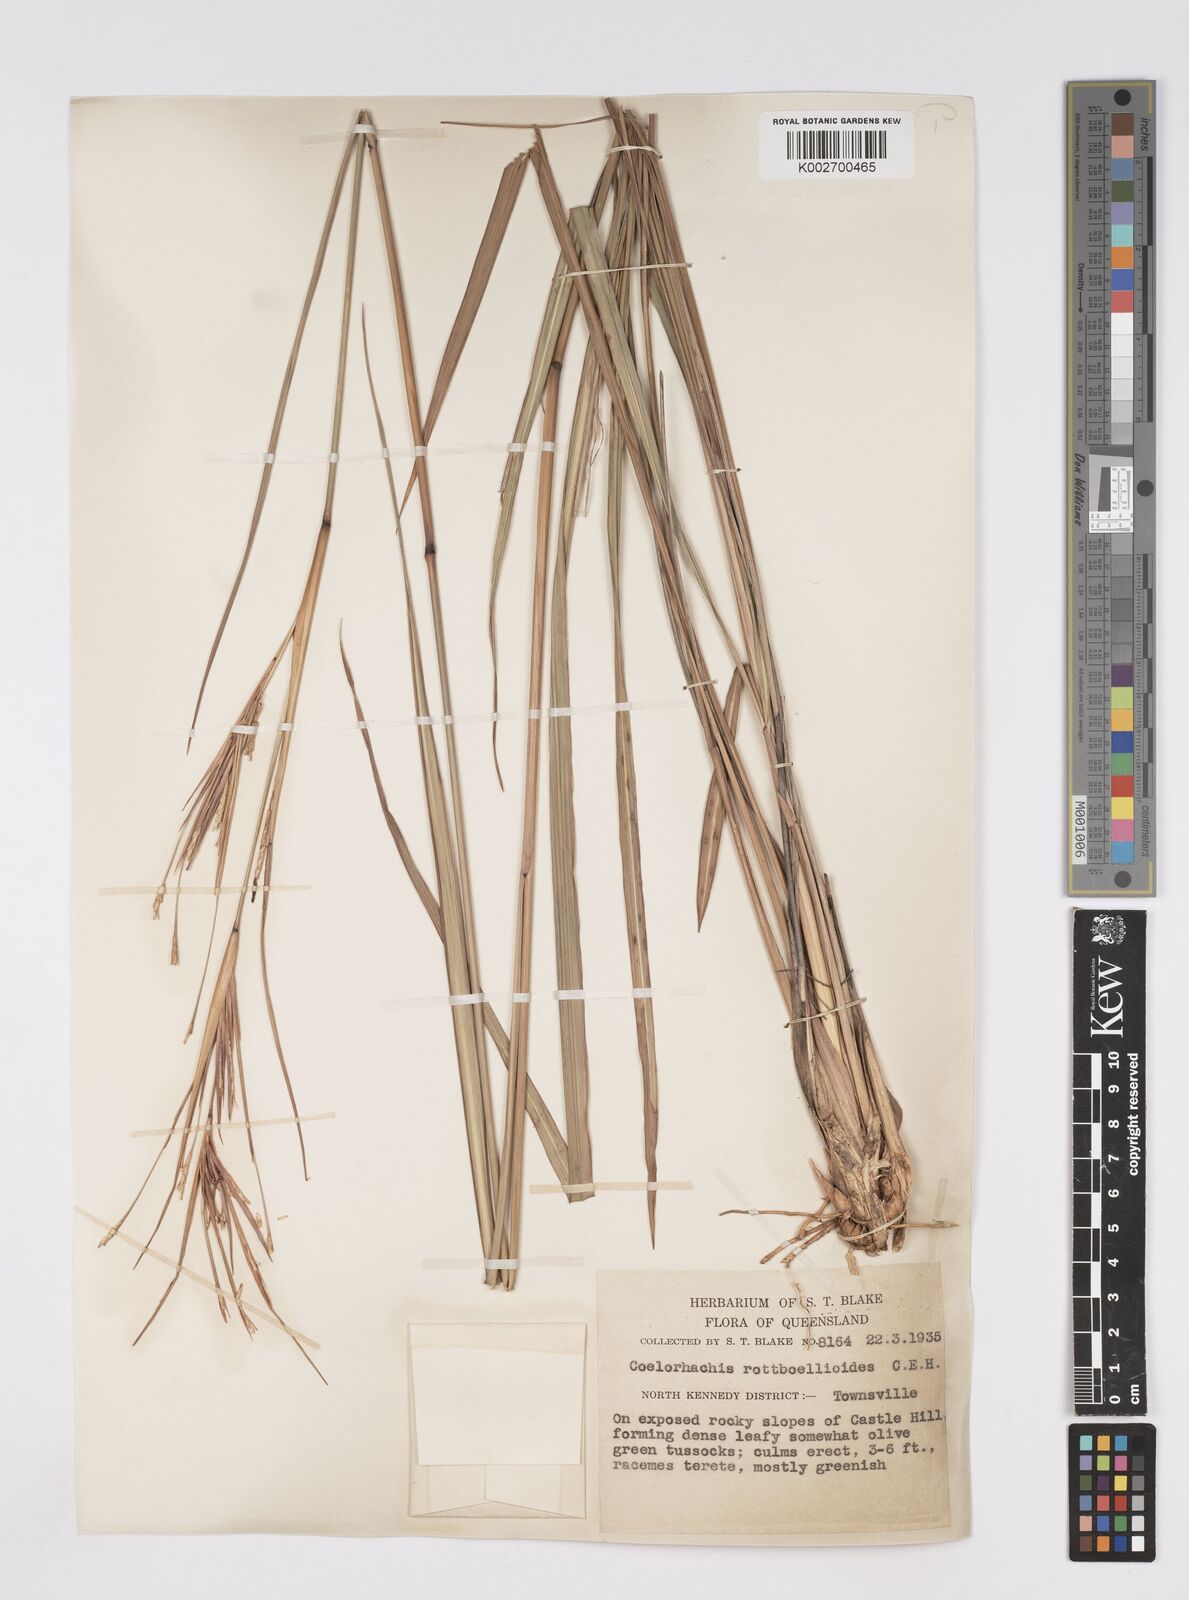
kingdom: Plantae
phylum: Tracheophyta
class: Liliopsida
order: Poales
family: Poaceae
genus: Rottboellia
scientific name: Rottboellia rottboellioides
